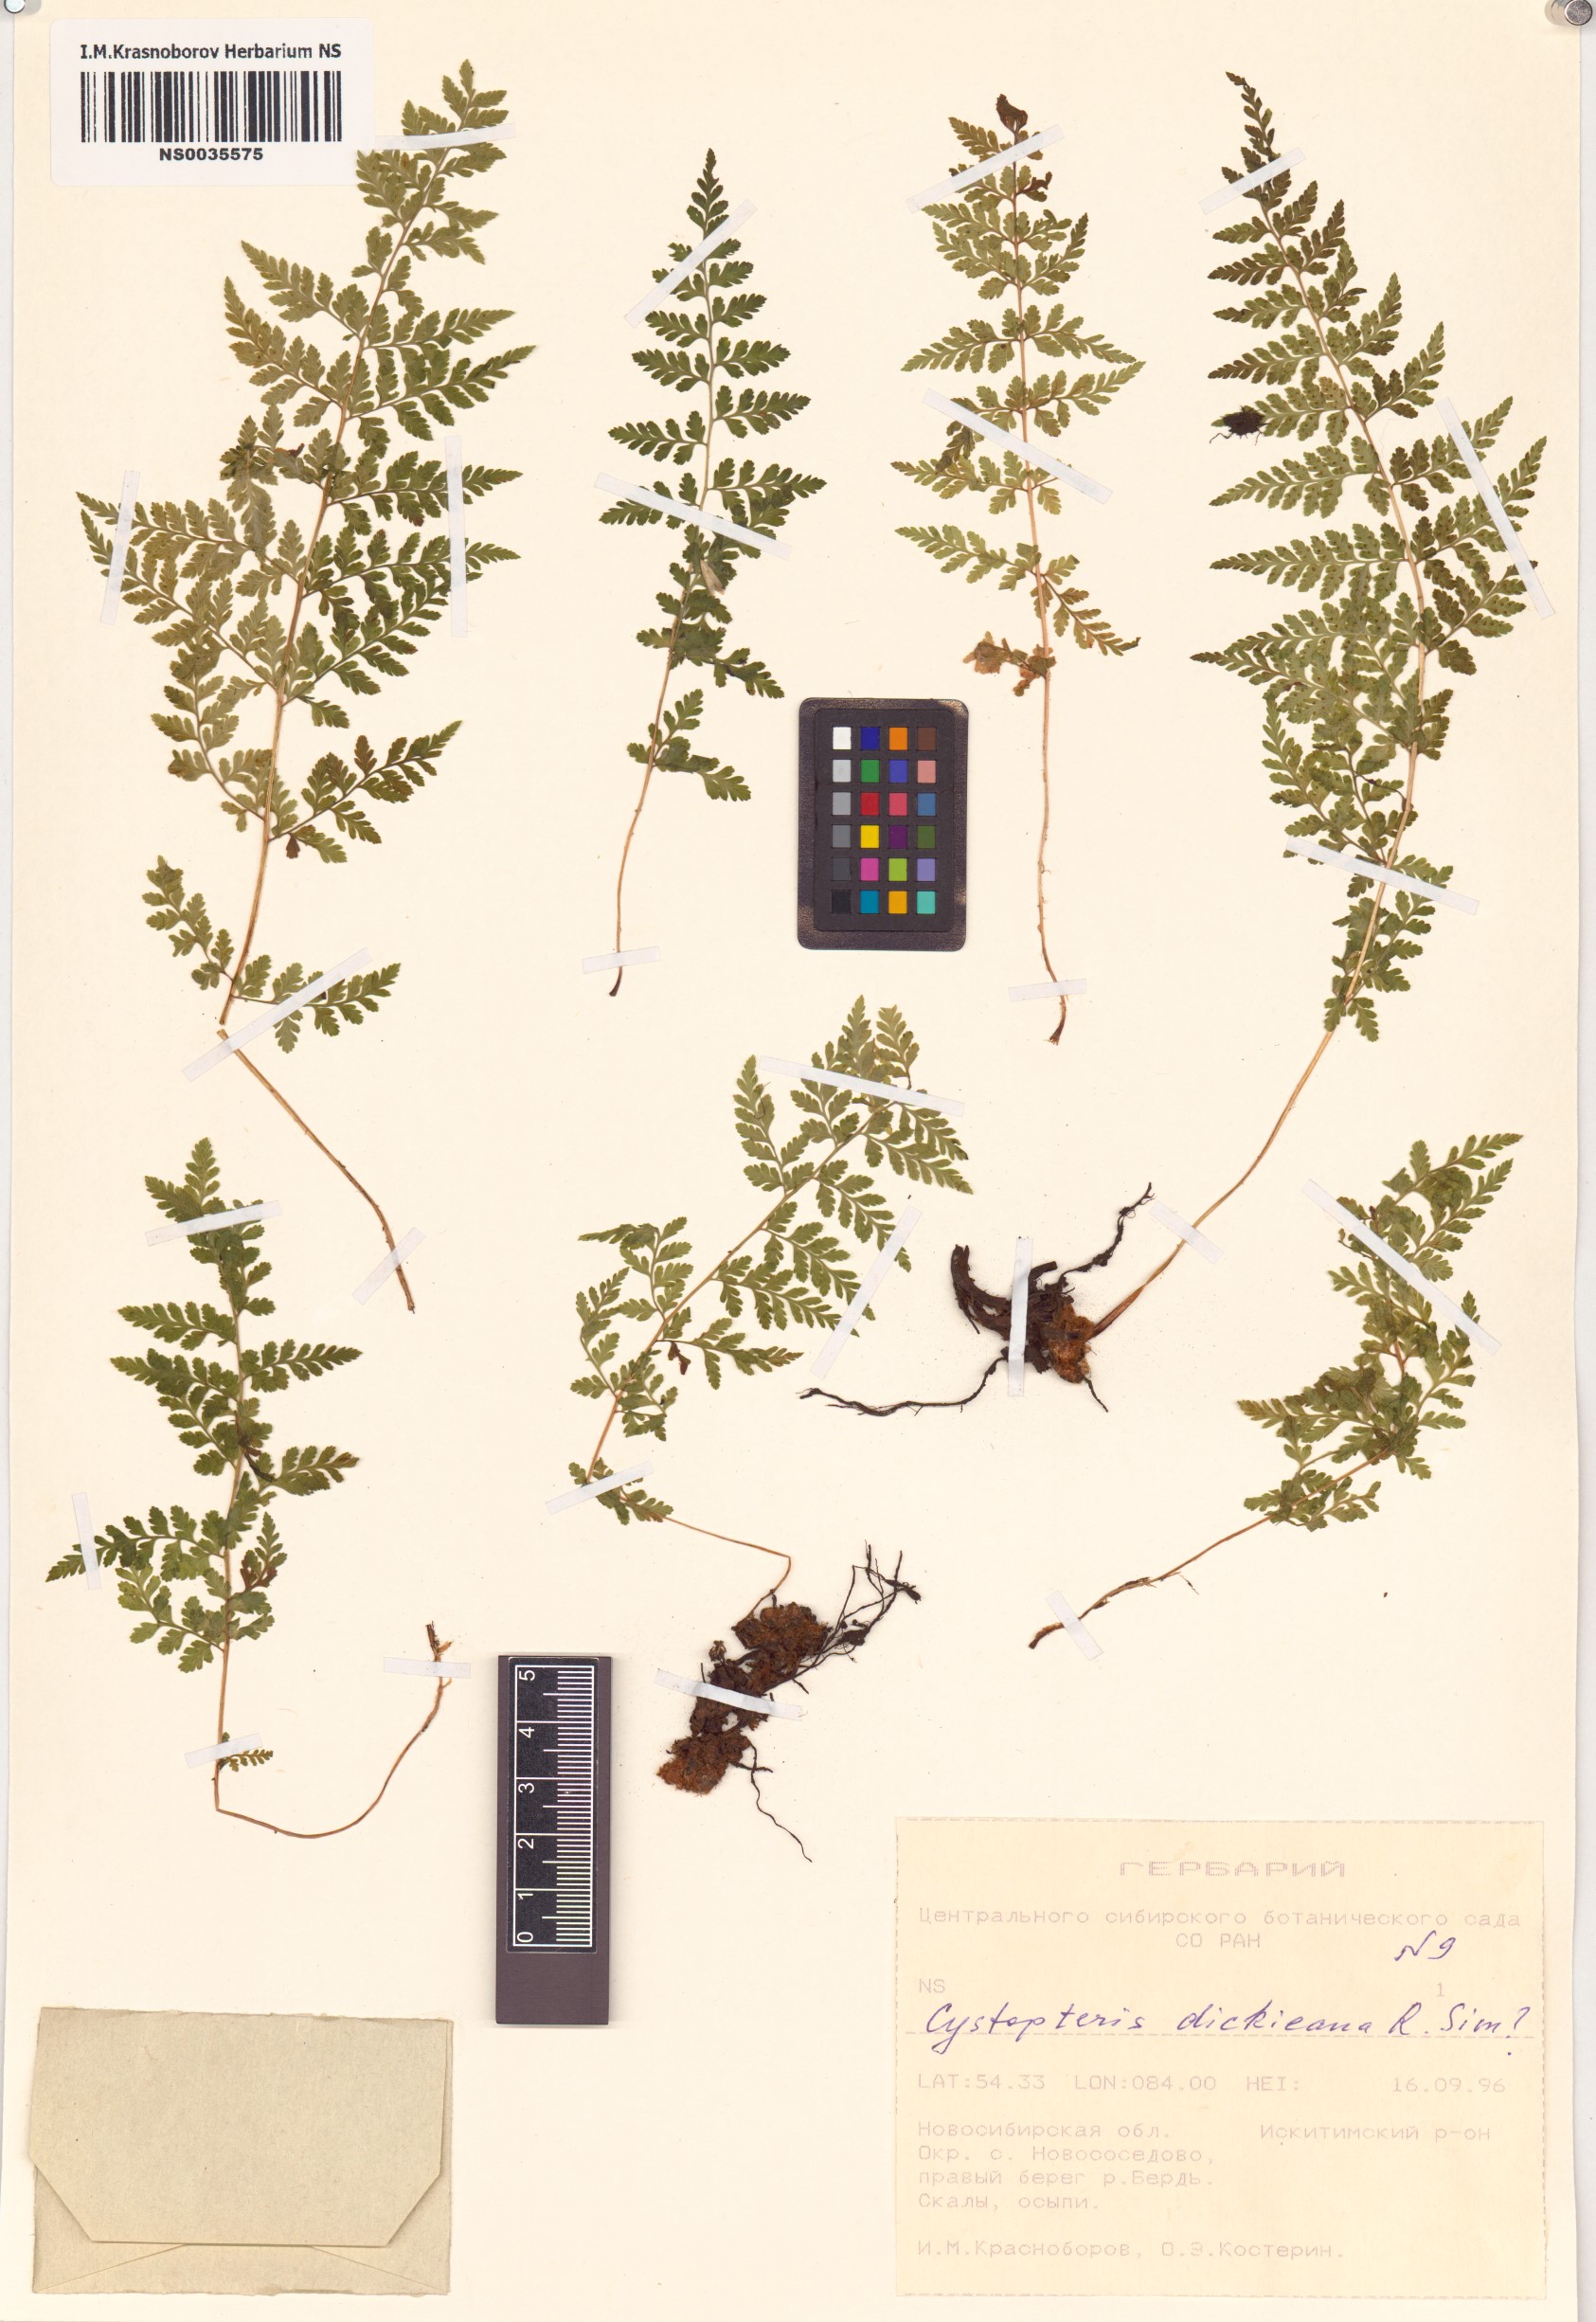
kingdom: Plantae
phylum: Tracheophyta
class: Polypodiopsida
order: Polypodiales
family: Cystopteridaceae
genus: Cystopteris
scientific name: Cystopteris dickieana
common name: Dickie's bladder-fern
